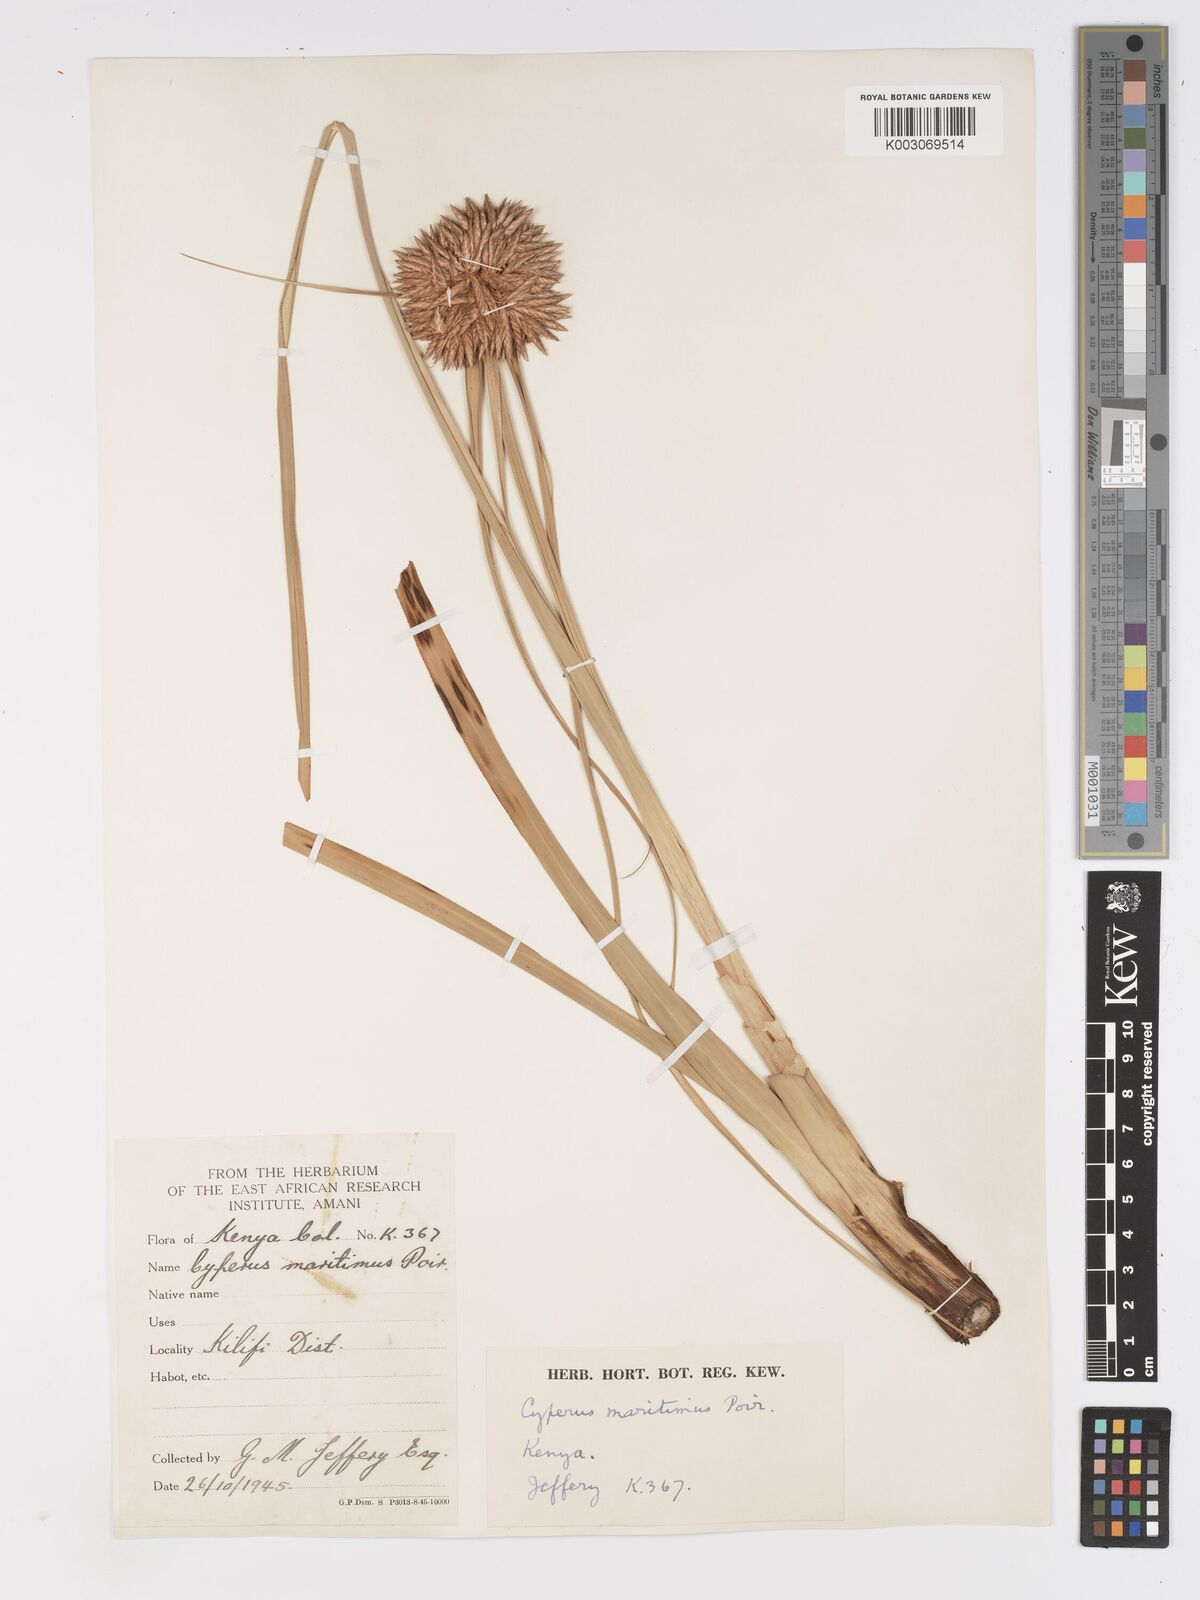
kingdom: Plantae
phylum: Tracheophyta
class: Liliopsida
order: Poales
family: Cyperaceae
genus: Cyperus
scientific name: Cyperus crassipes
